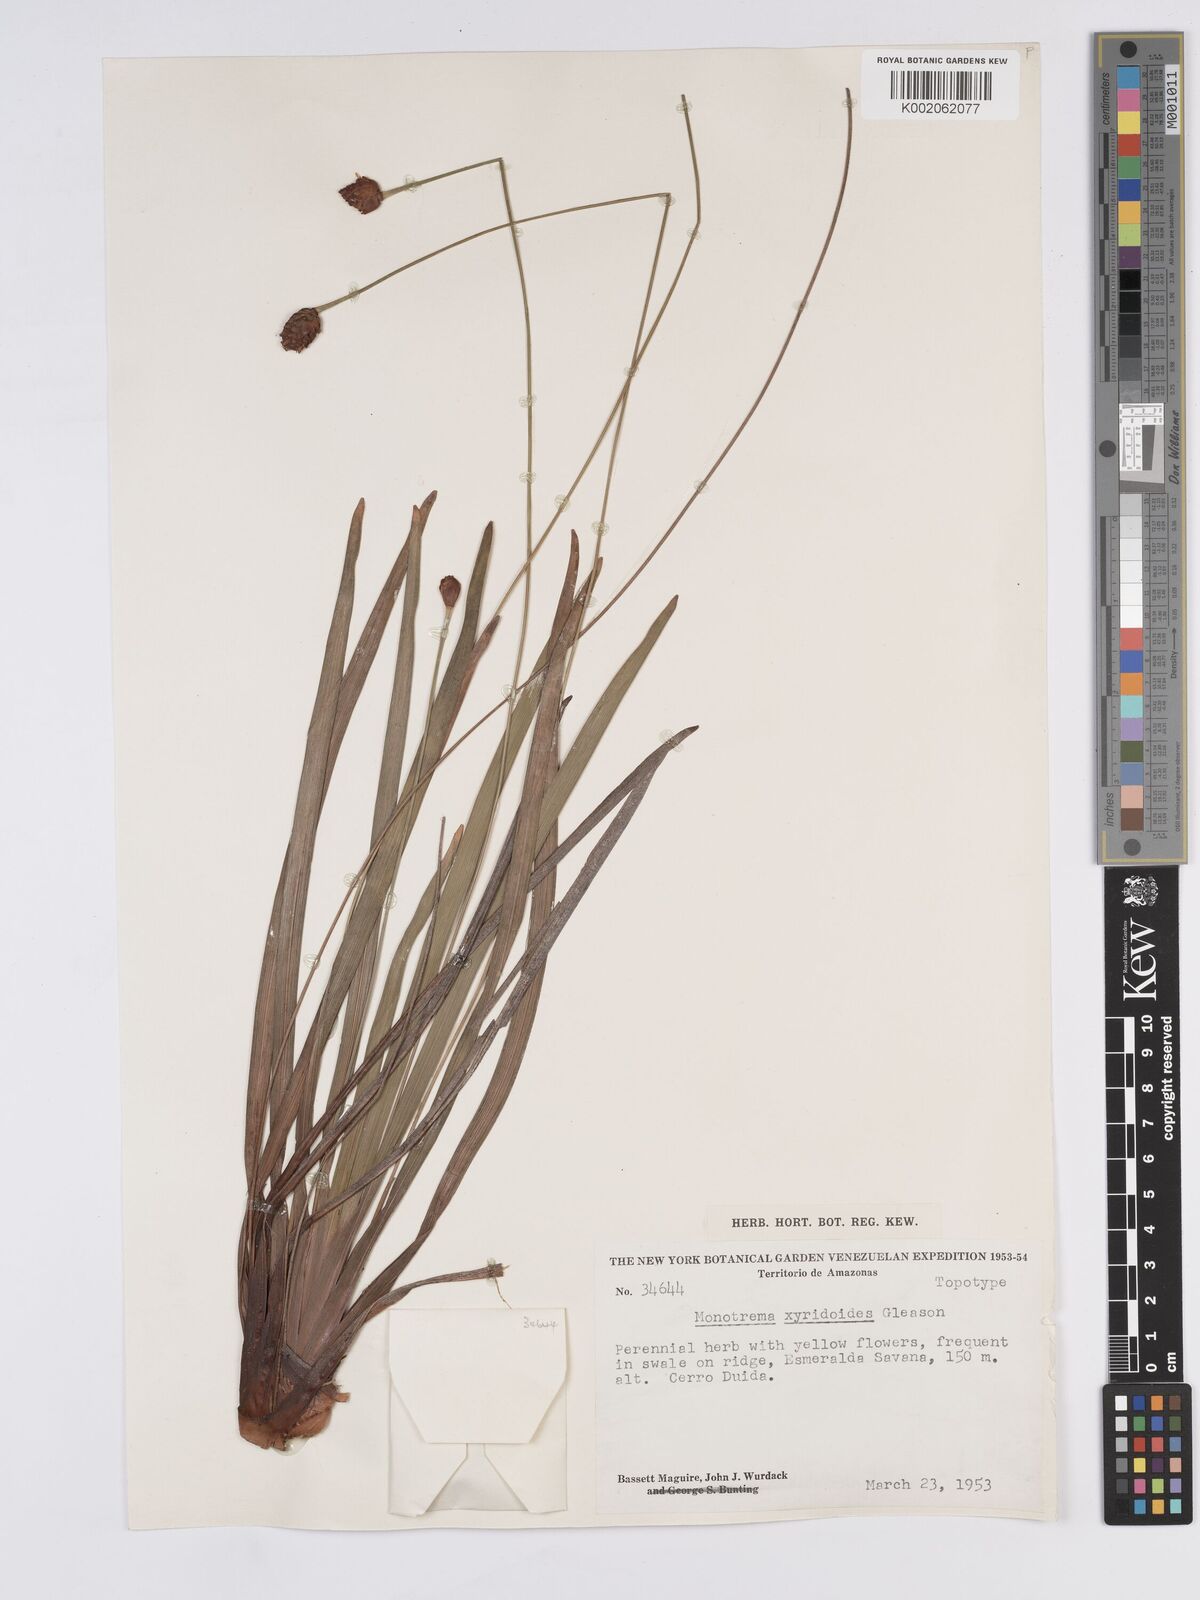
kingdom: Plantae
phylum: Tracheophyta
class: Liliopsida
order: Poales
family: Rapateaceae
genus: Monotrema
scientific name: Monotrema xyridoides
